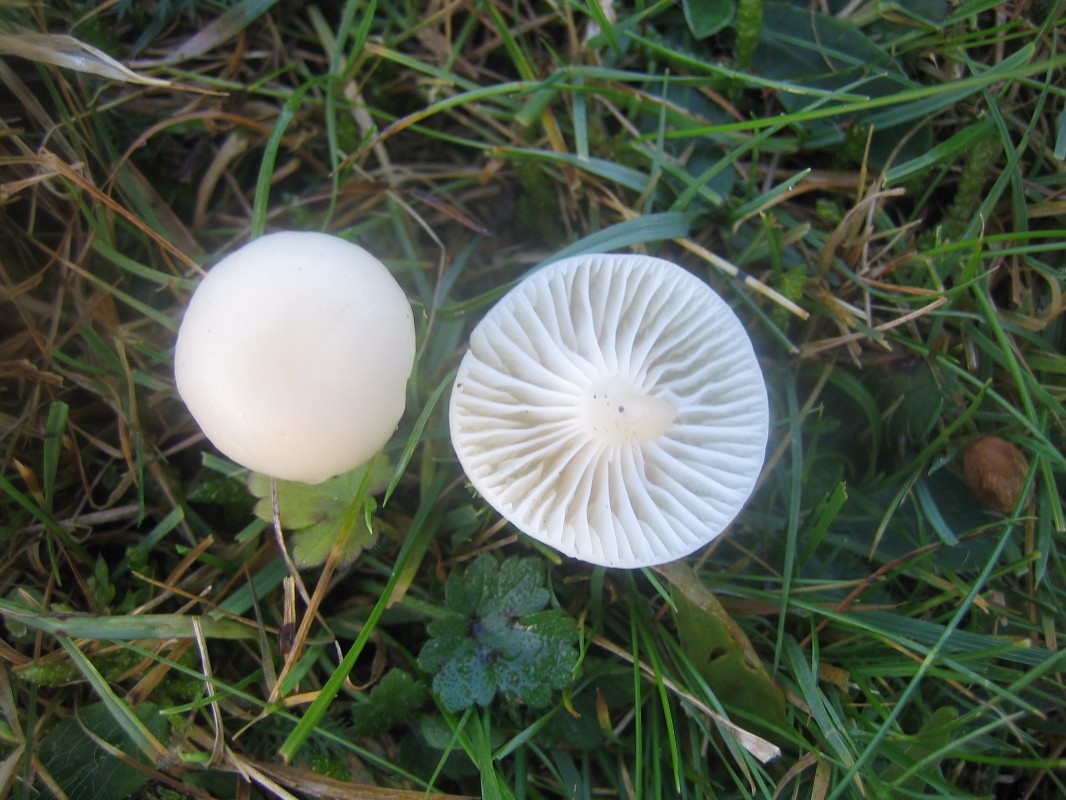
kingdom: Fungi
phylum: Basidiomycota
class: Agaricomycetes
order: Agaricales
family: Hygrophoraceae
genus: Cuphophyllus
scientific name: Cuphophyllus virgineus
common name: snehvid vokshat
